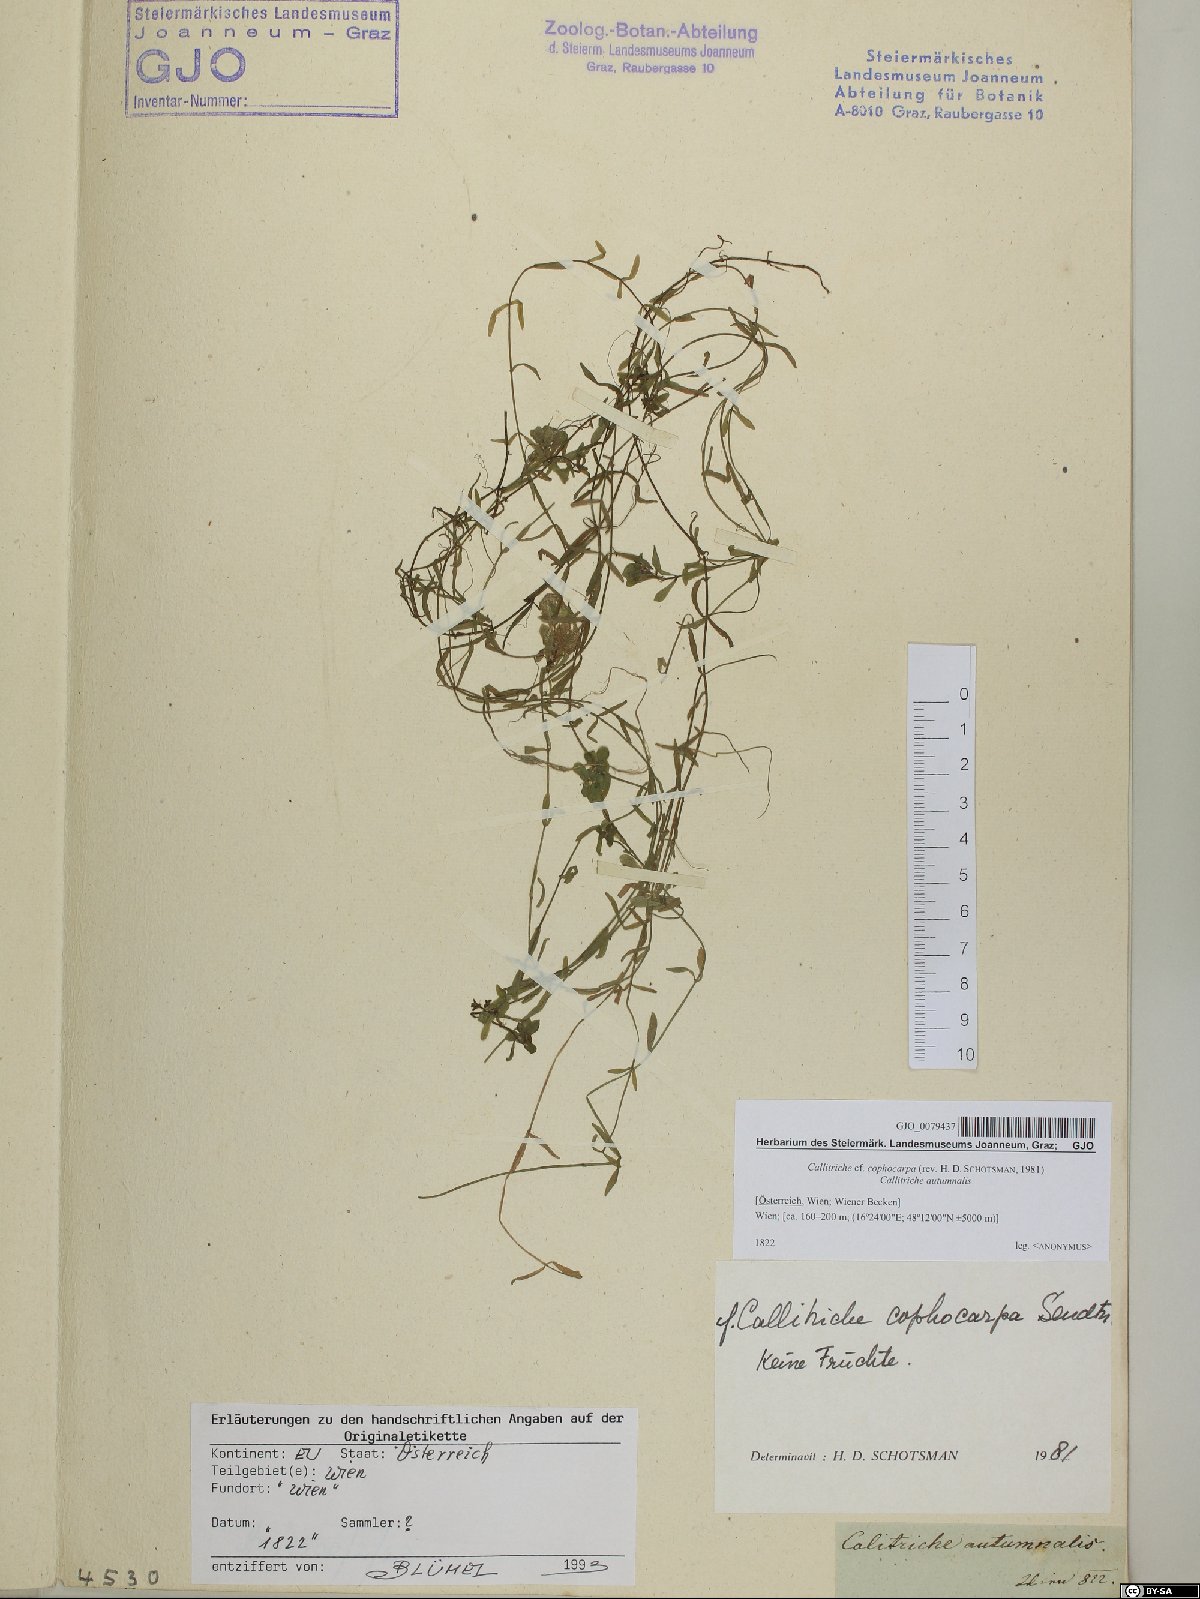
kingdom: Plantae
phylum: Tracheophyta
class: Magnoliopsida
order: Lamiales
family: Plantaginaceae
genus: Callitriche
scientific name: Callitriche cophocarpa
